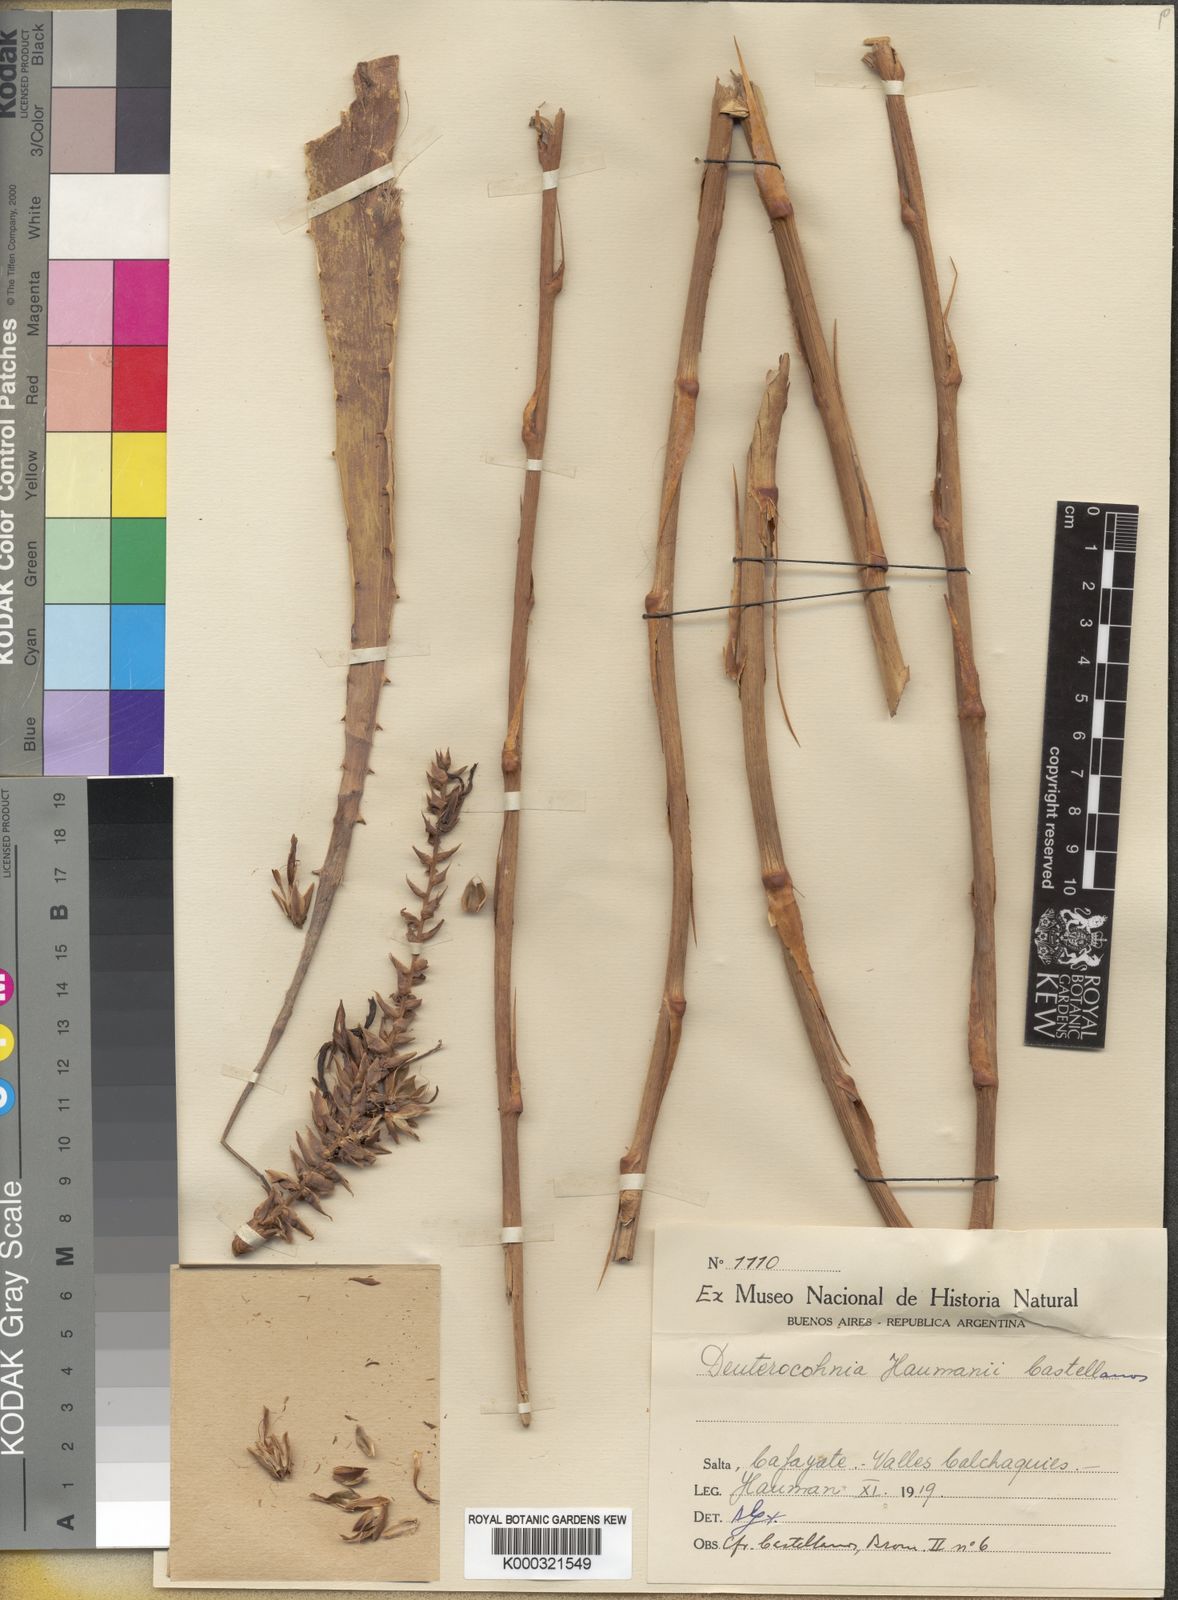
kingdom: Plantae
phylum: Tracheophyta
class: Liliopsida
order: Poales
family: Bromeliaceae
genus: Deuterocohnia
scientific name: Deuterocohnia haumanii
